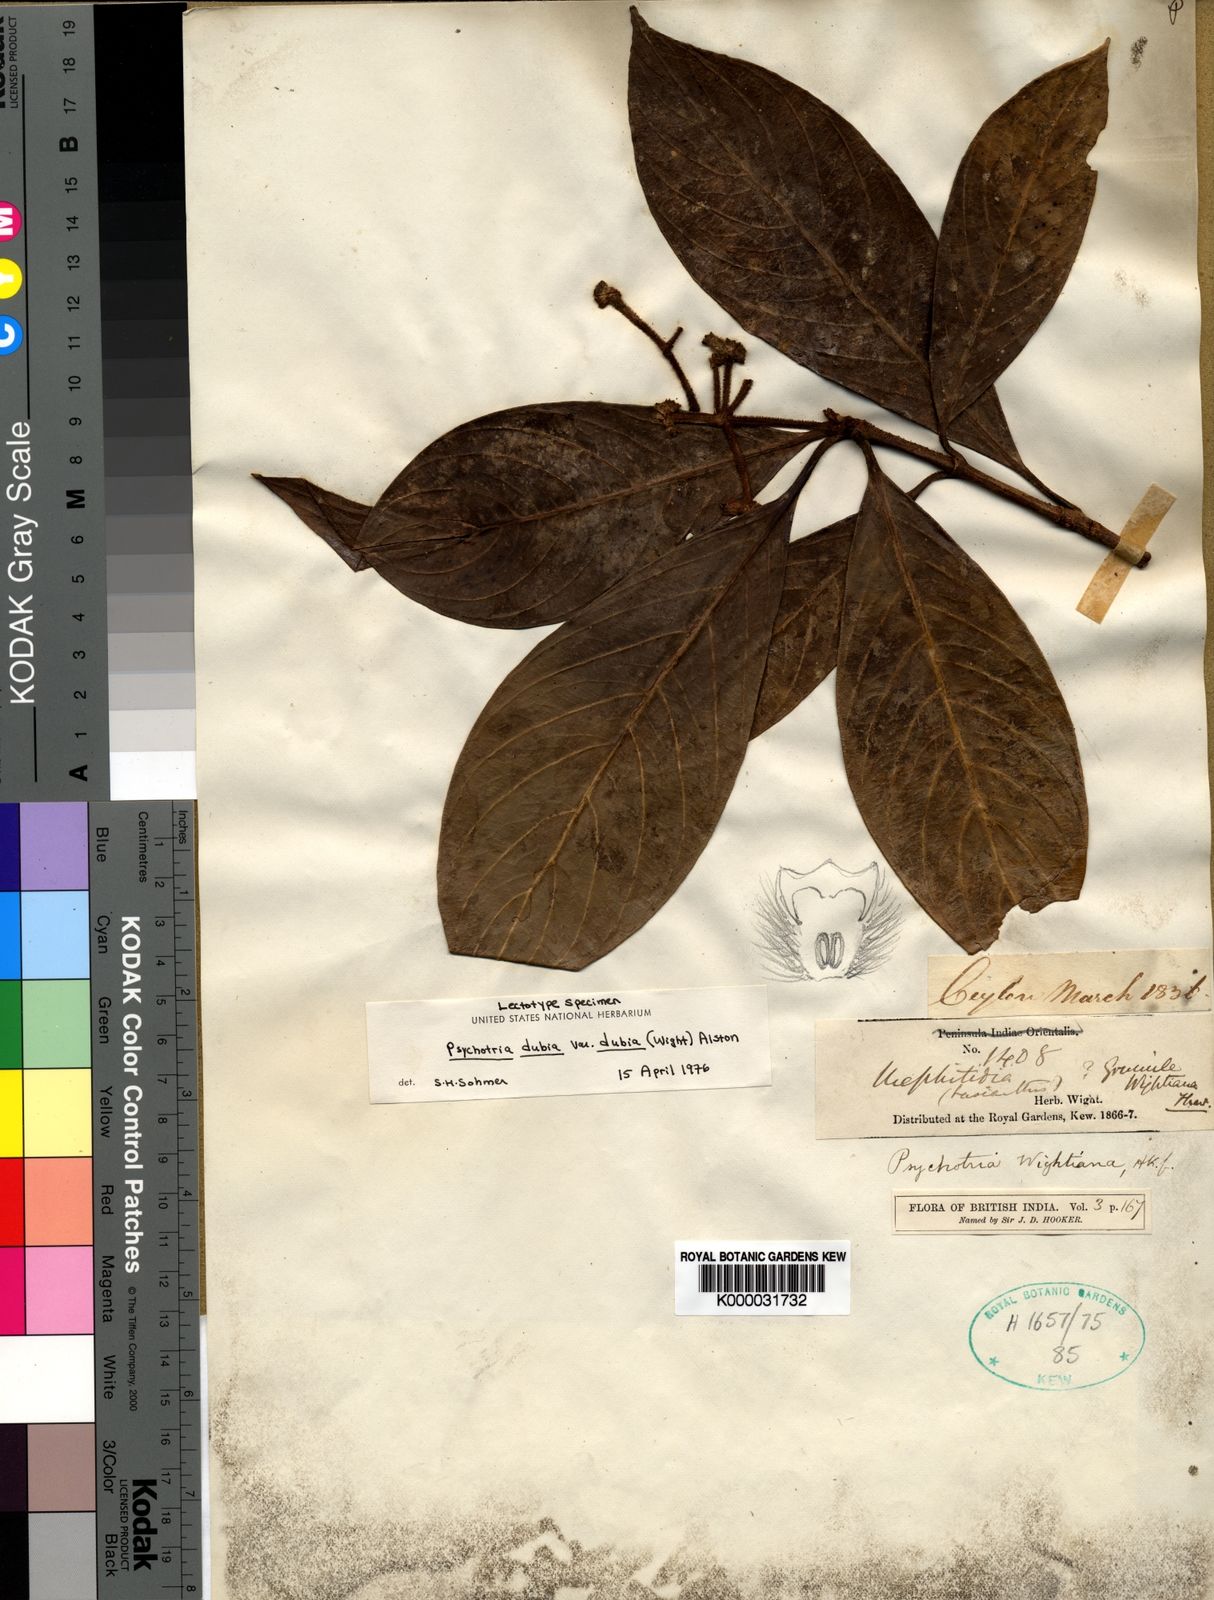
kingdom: Plantae
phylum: Tracheophyta
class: Magnoliopsida
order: Gentianales
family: Rubiaceae
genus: Psychotria
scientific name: Psychotria dubia
